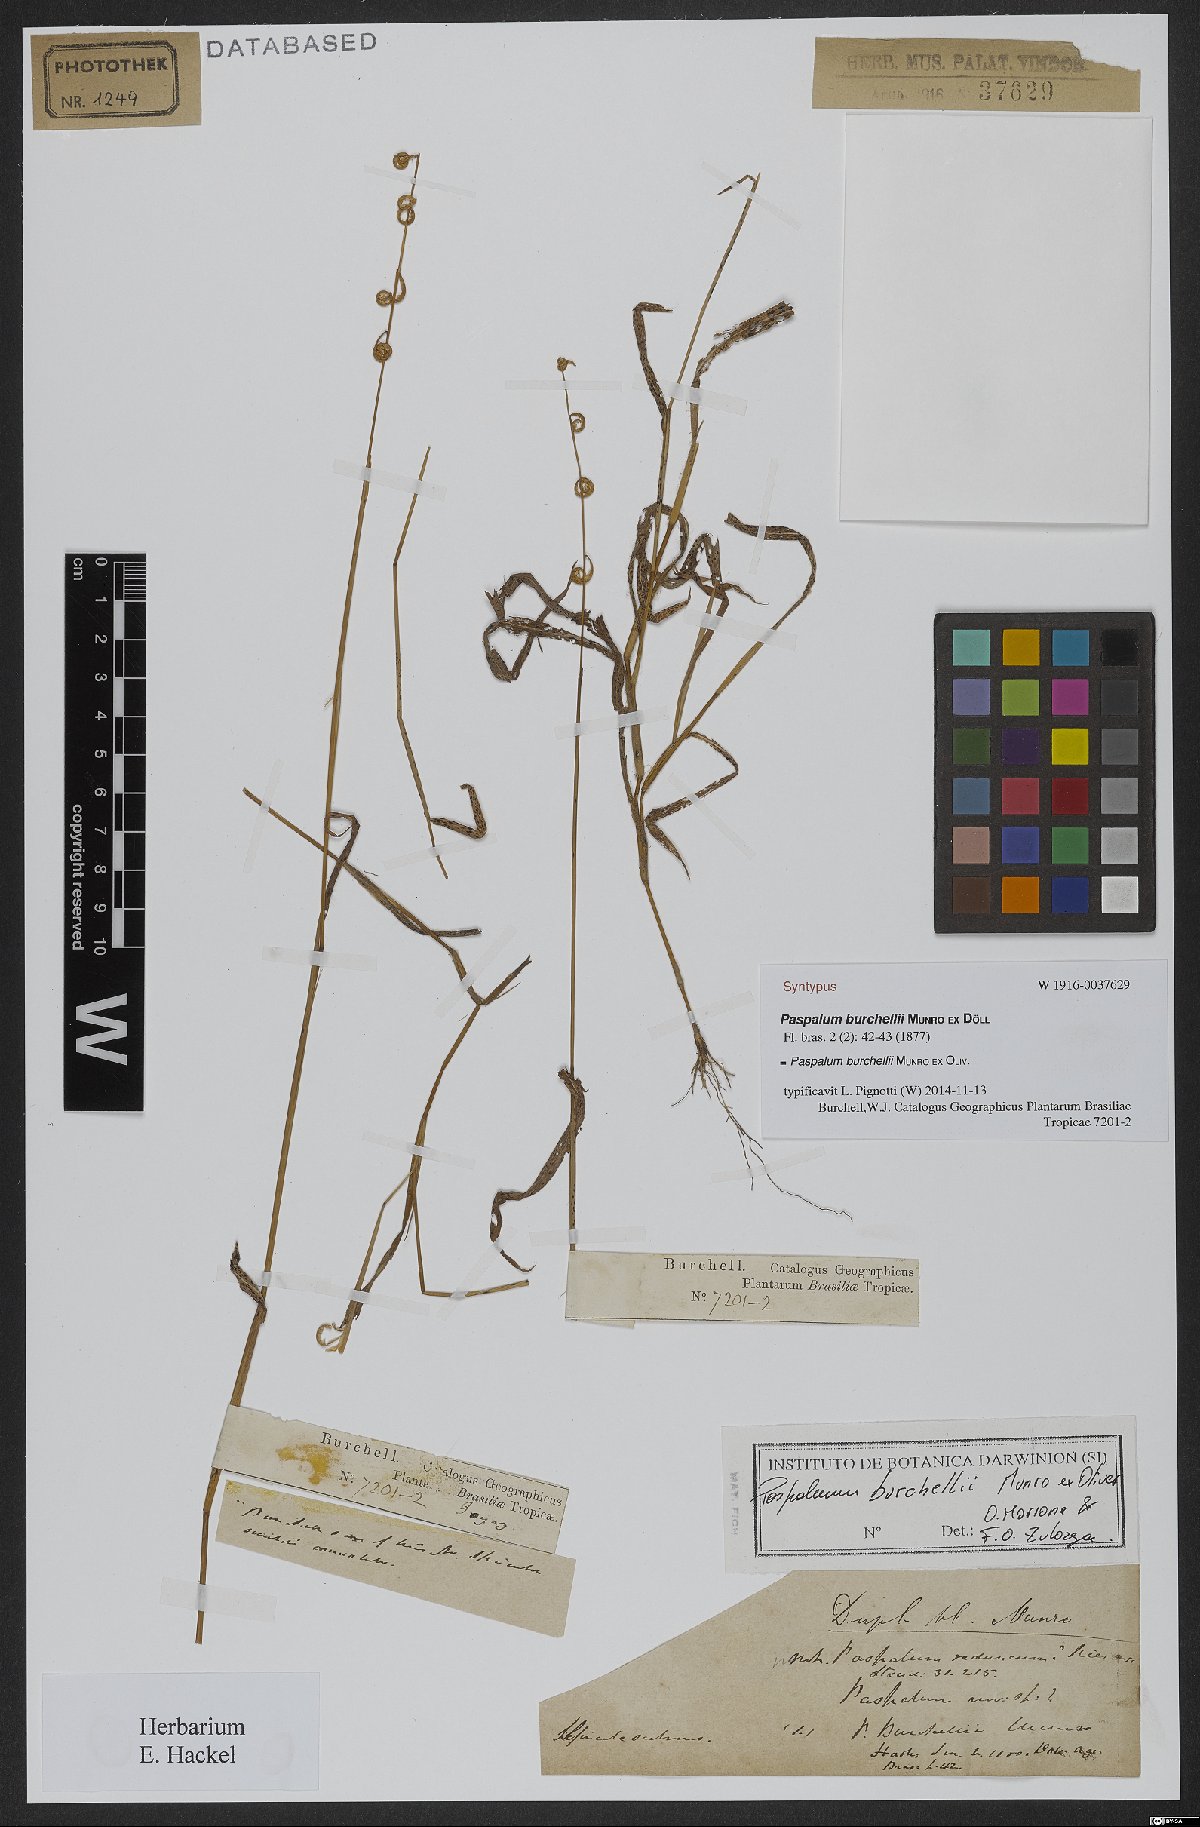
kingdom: Plantae
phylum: Tracheophyta
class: Liliopsida
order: Poales
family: Poaceae
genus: Paspalum
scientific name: Paspalum burchellii
